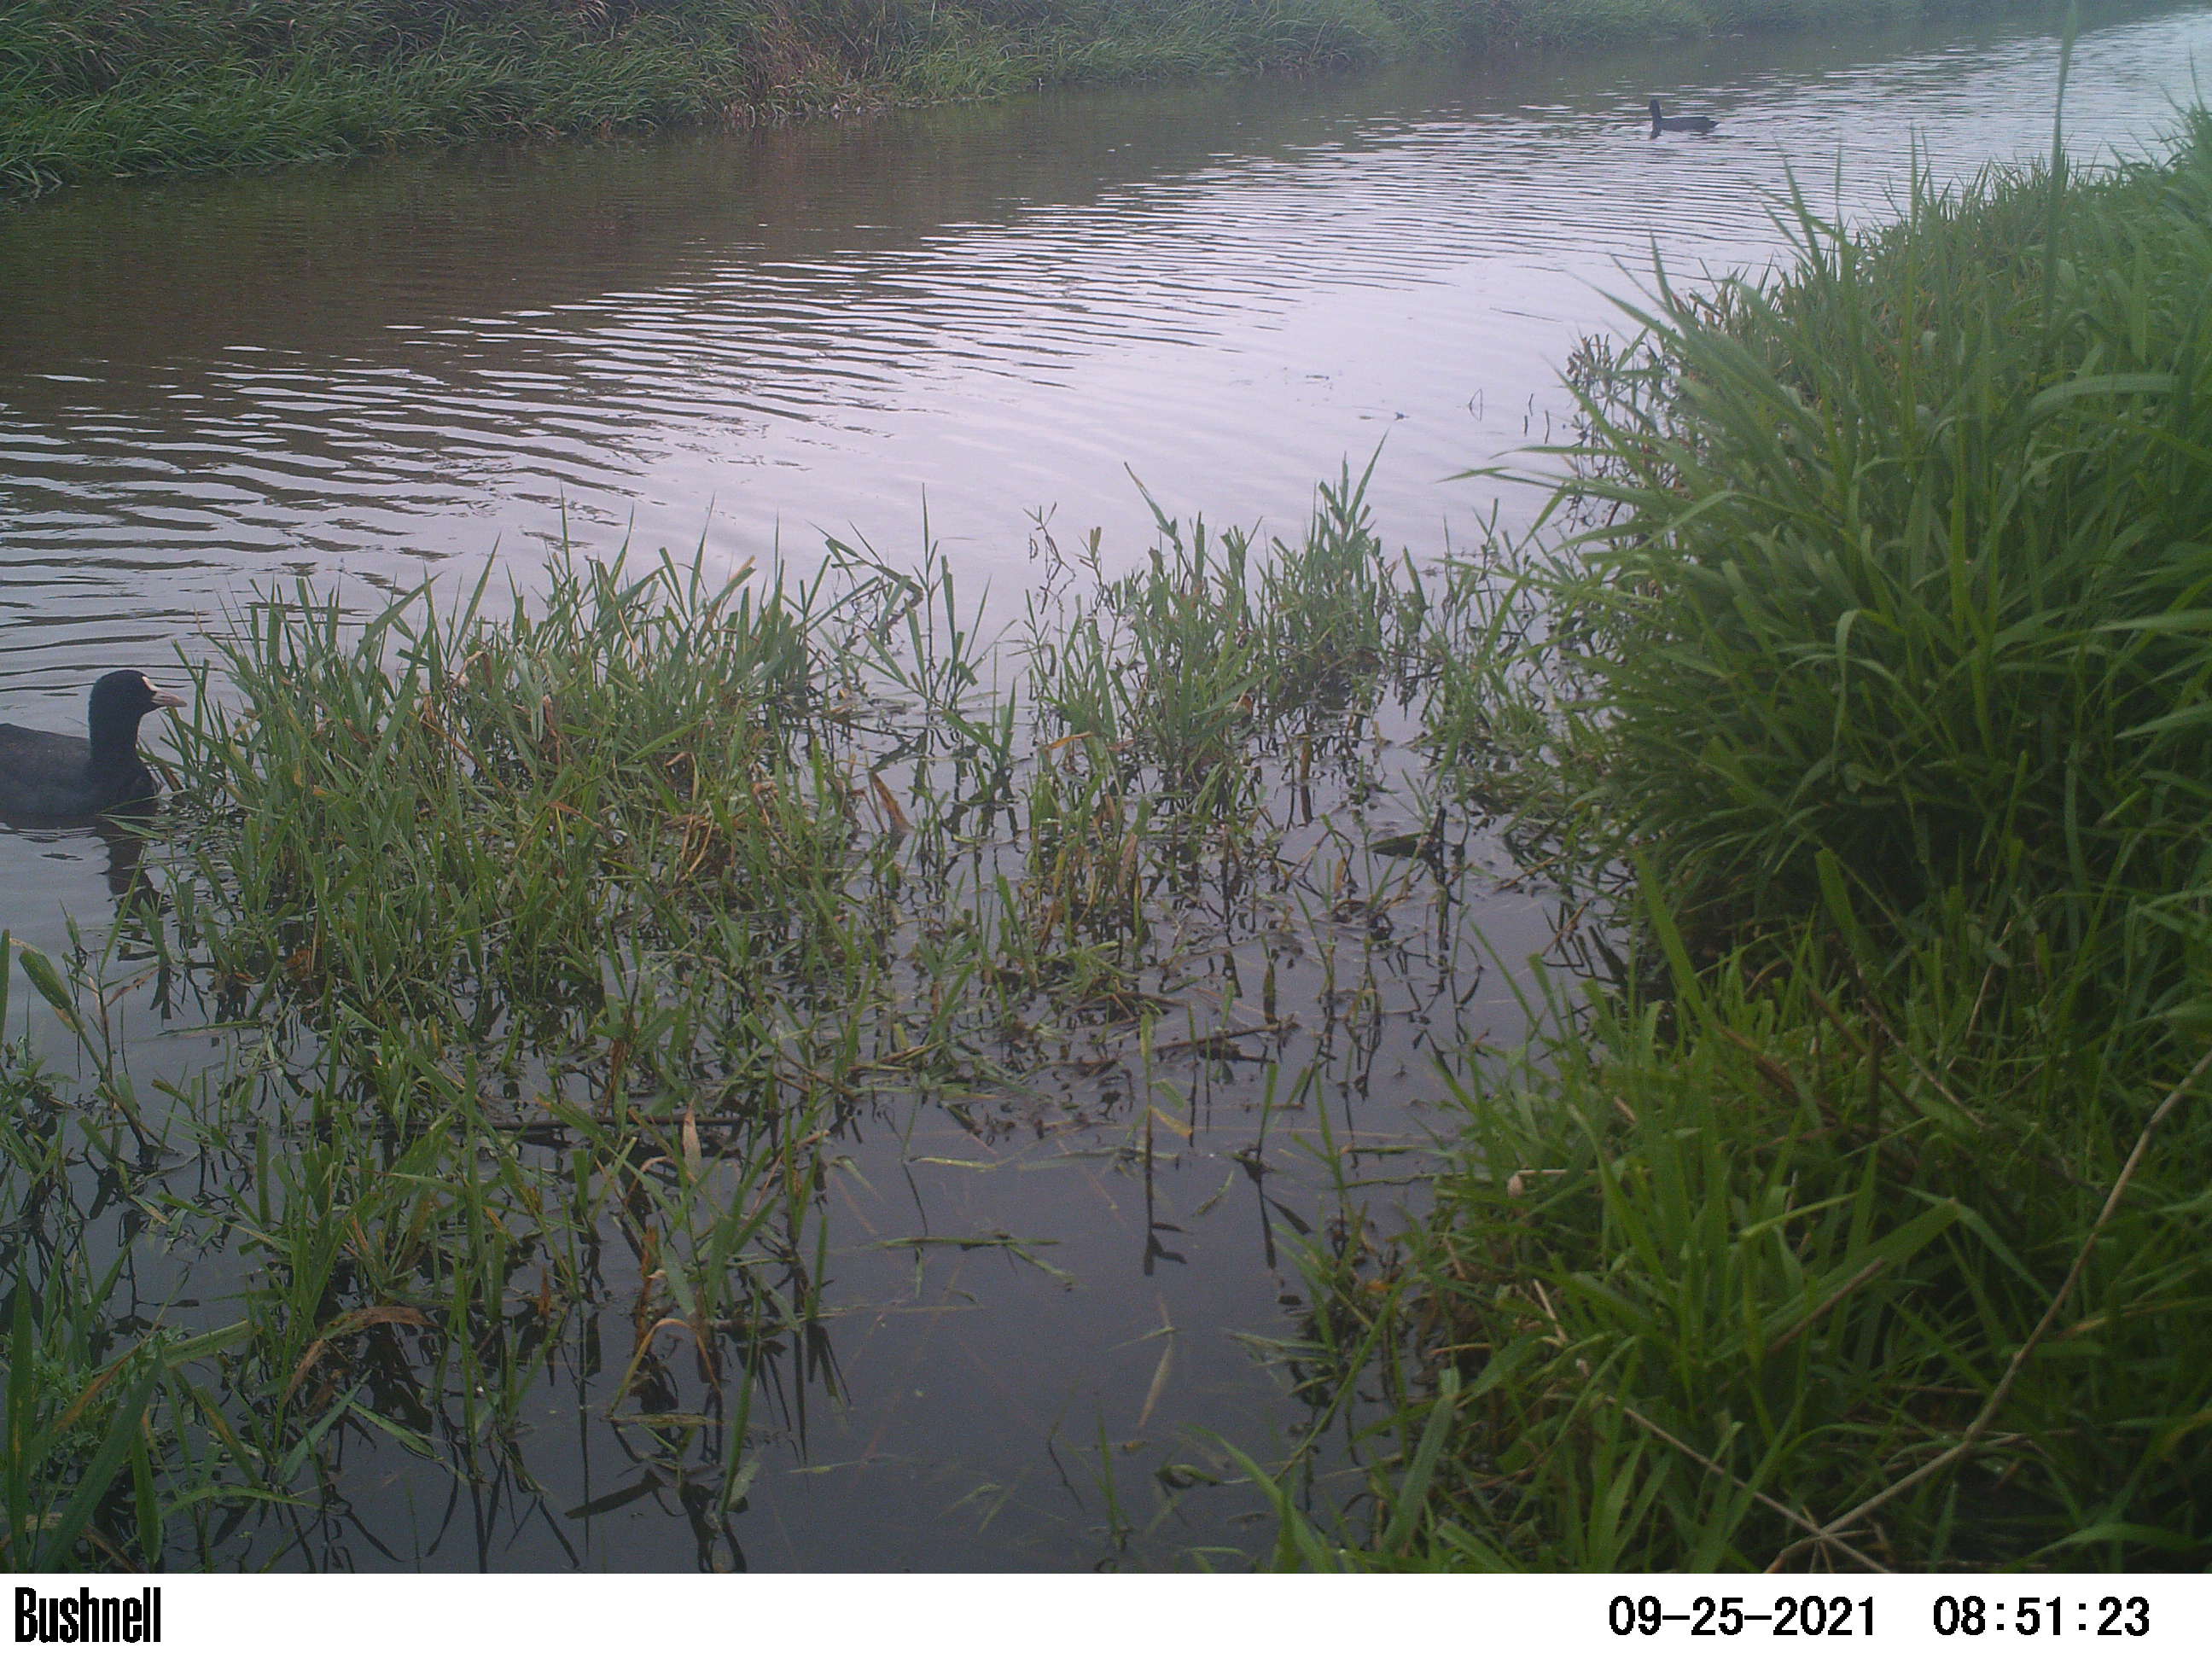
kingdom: Animalia
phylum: Chordata
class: Aves
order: Gruiformes
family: Rallidae
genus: Fulica
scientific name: Fulica atra
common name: Eurasian coot
